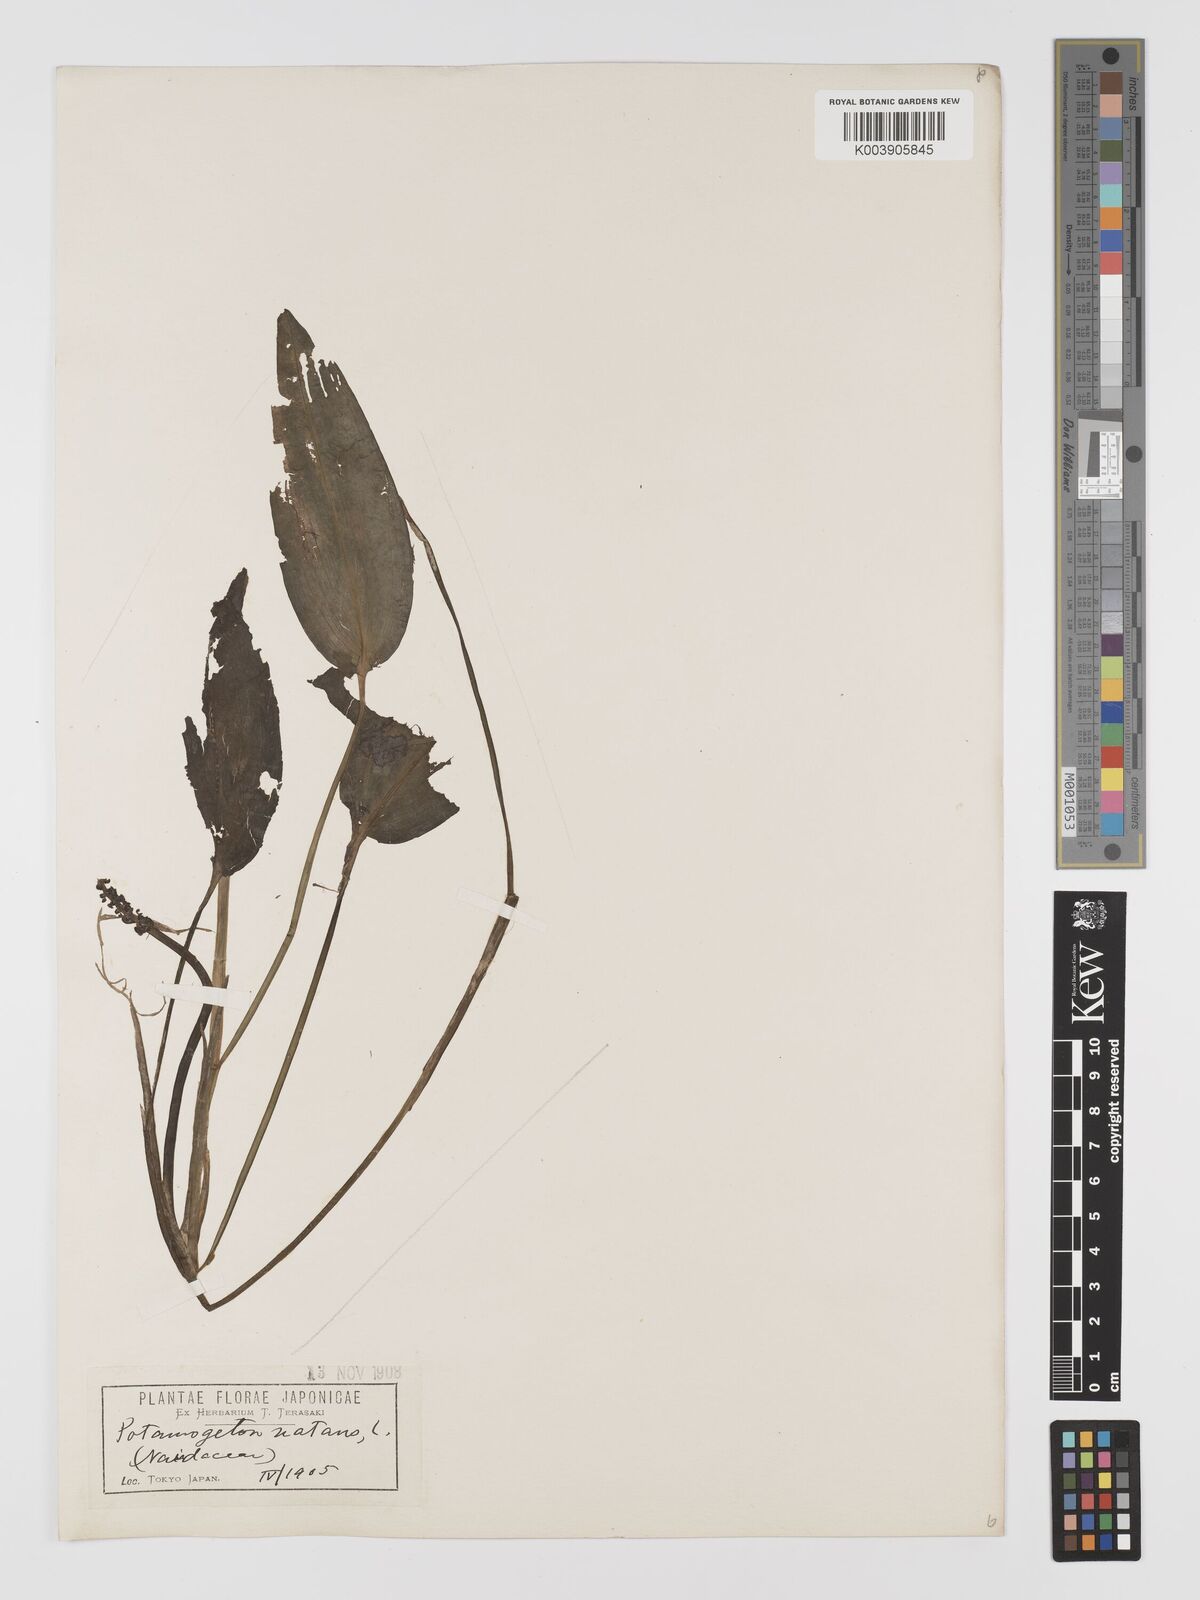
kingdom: Plantae
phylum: Tracheophyta
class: Liliopsida
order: Alismatales
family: Potamogetonaceae
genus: Potamogeton
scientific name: Potamogeton natans
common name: Broad-leaved pondweed
